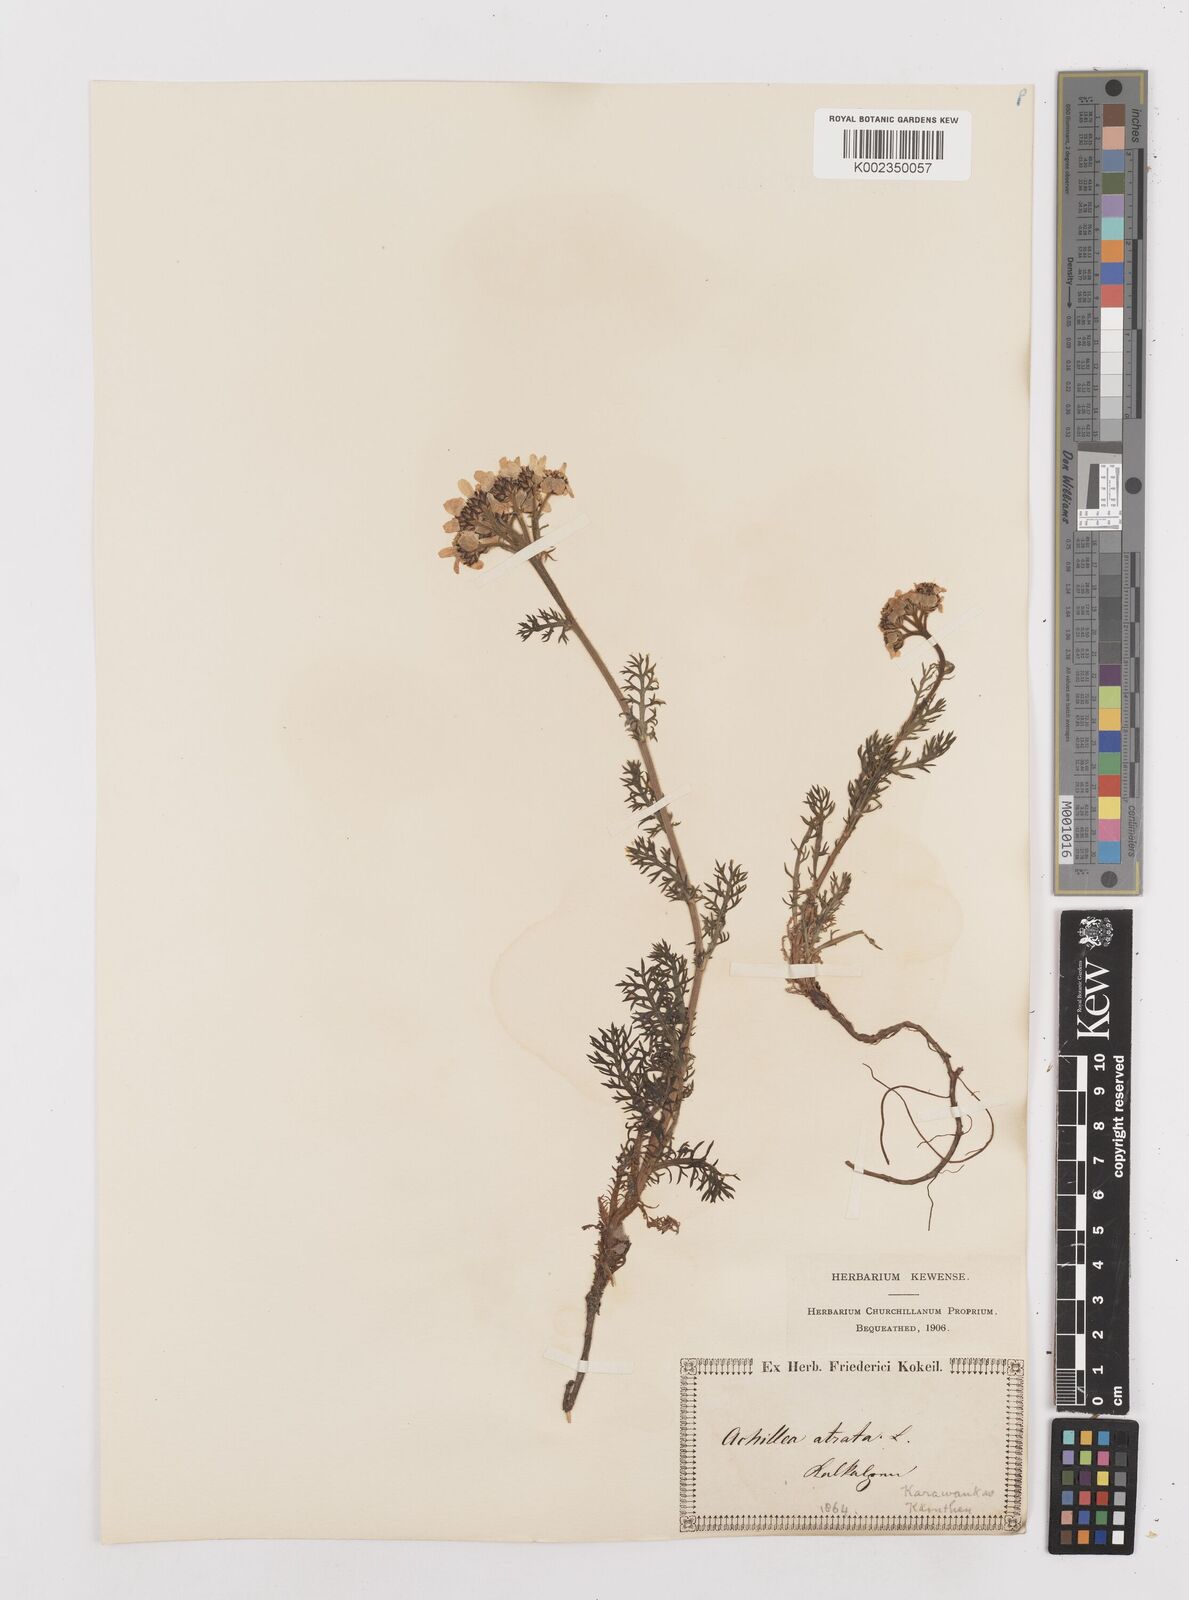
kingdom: Plantae
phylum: Tracheophyta
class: Magnoliopsida
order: Asterales
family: Asteraceae
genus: Achillea
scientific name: Achillea atrata
